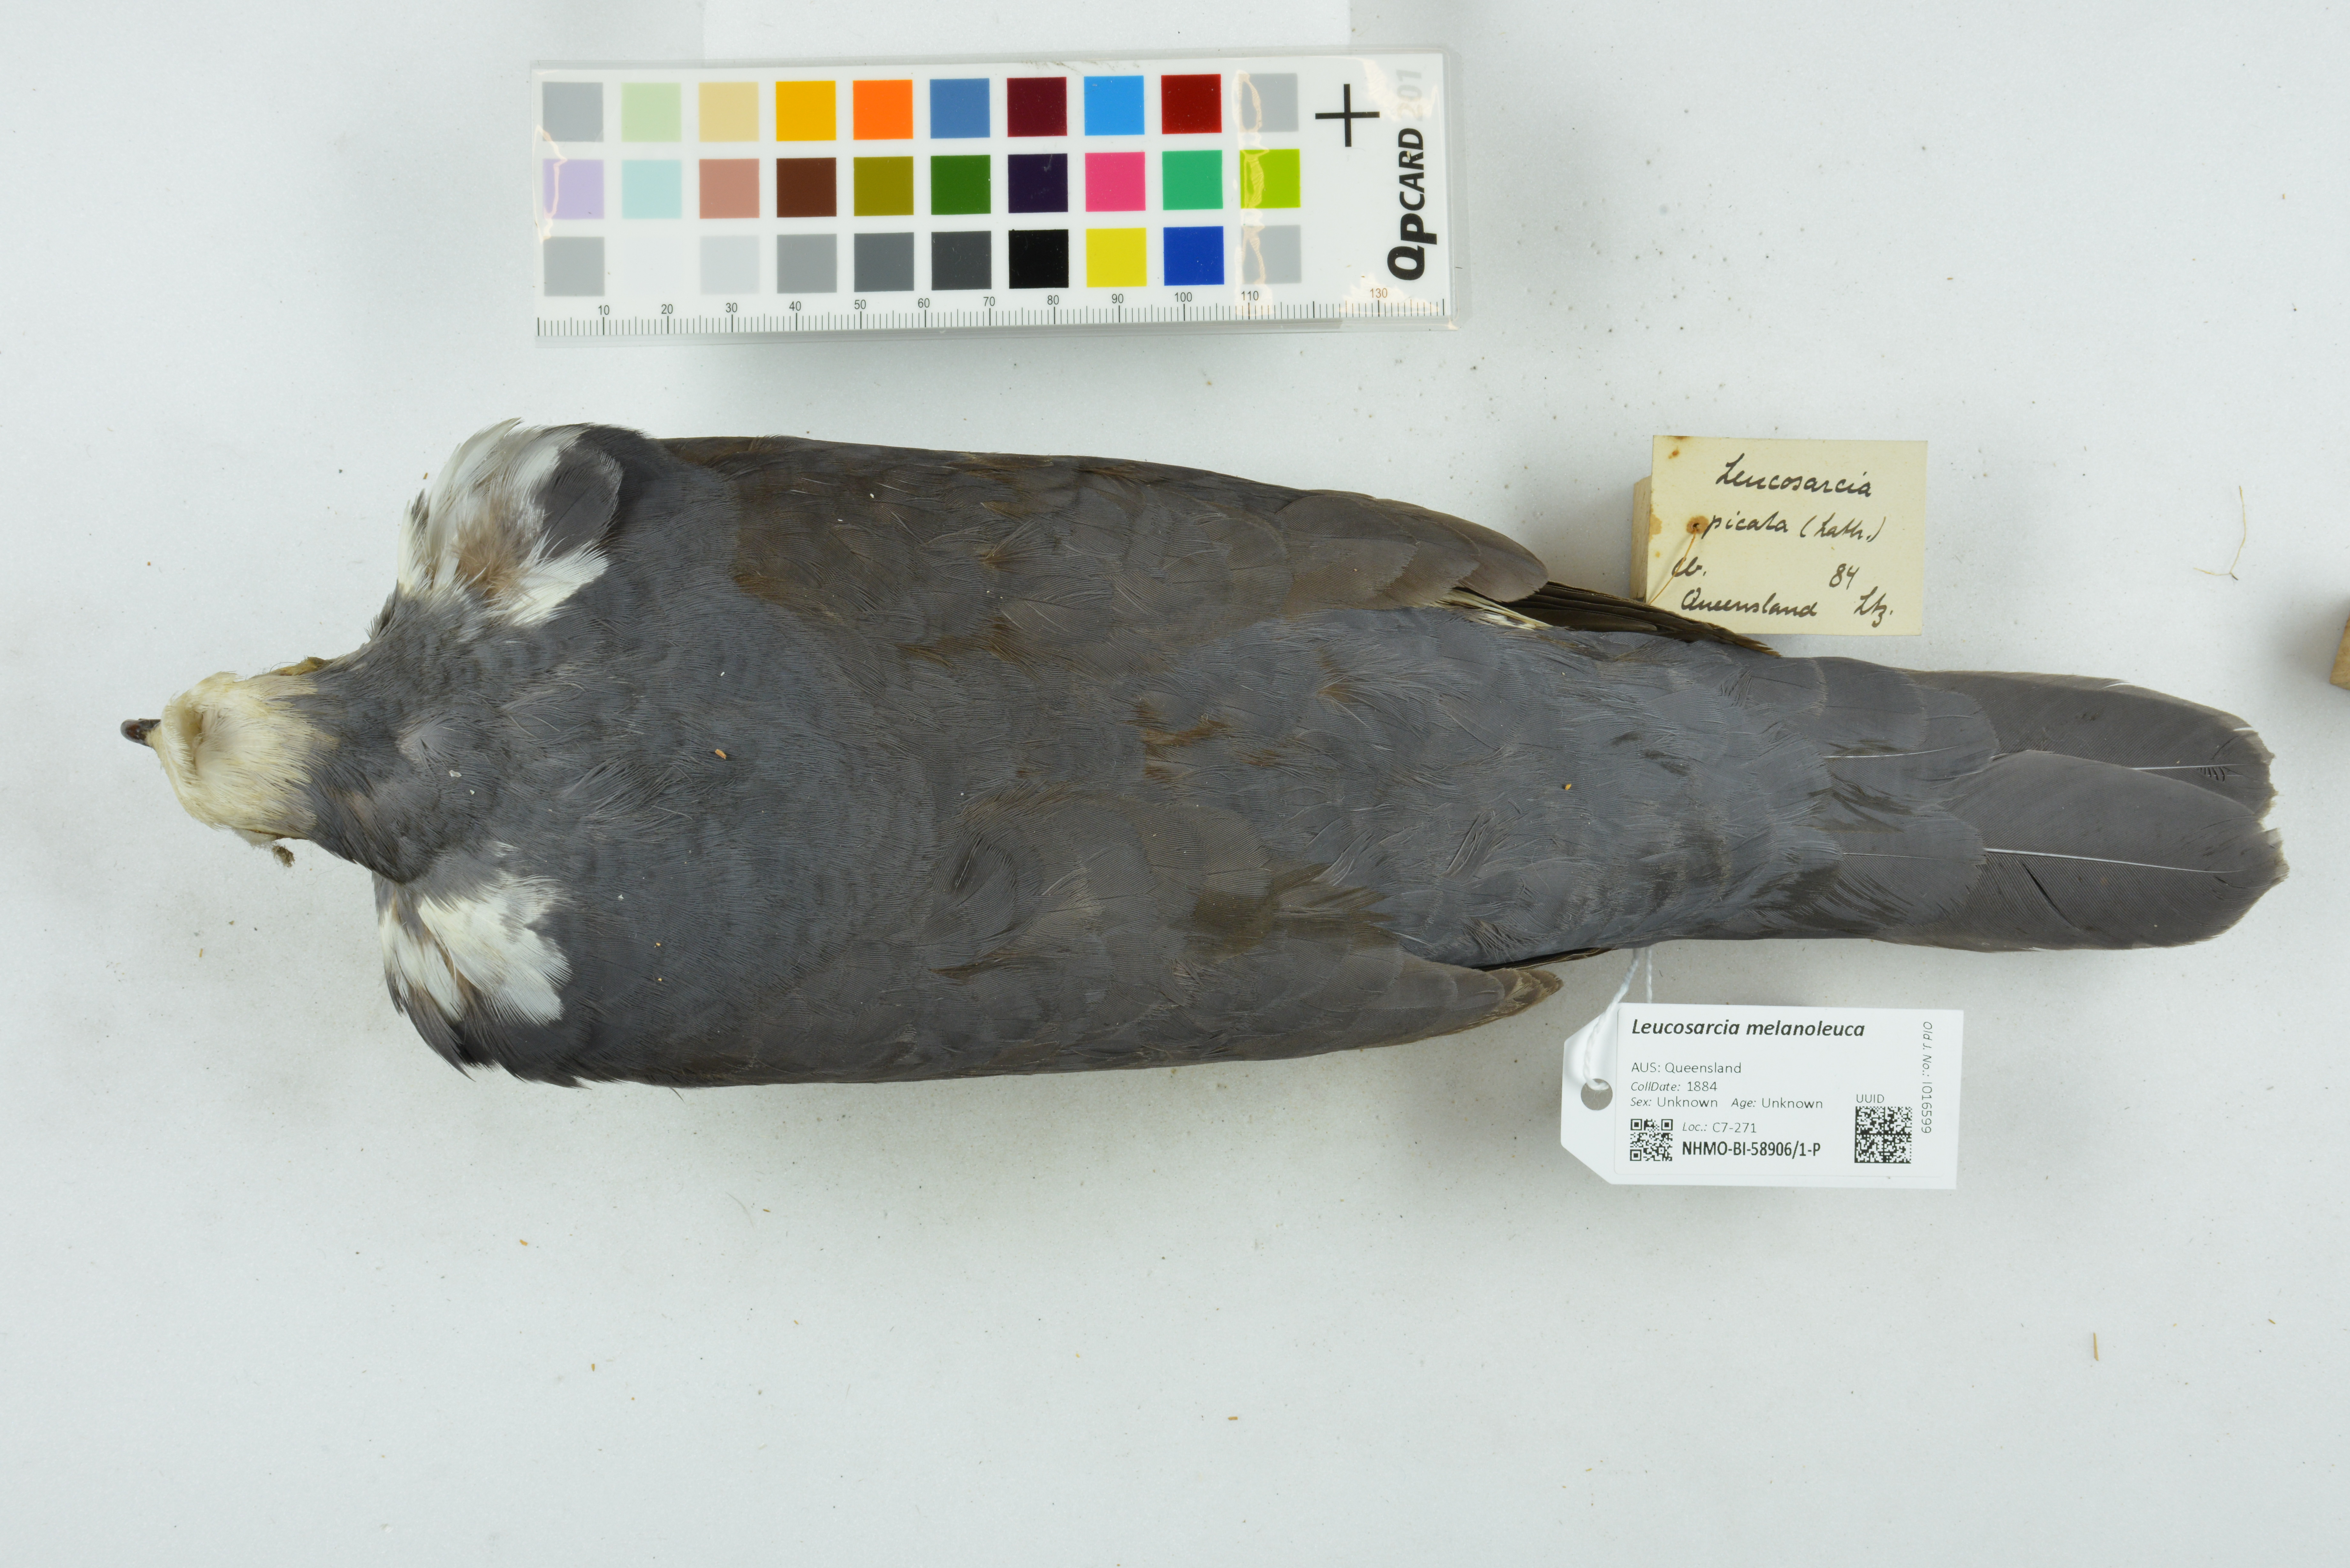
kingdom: Animalia
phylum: Chordata
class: Aves
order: Columbiformes
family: Columbidae
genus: Leucosarcia
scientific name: Leucosarcia melanoleuca
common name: Wonga pigeon
